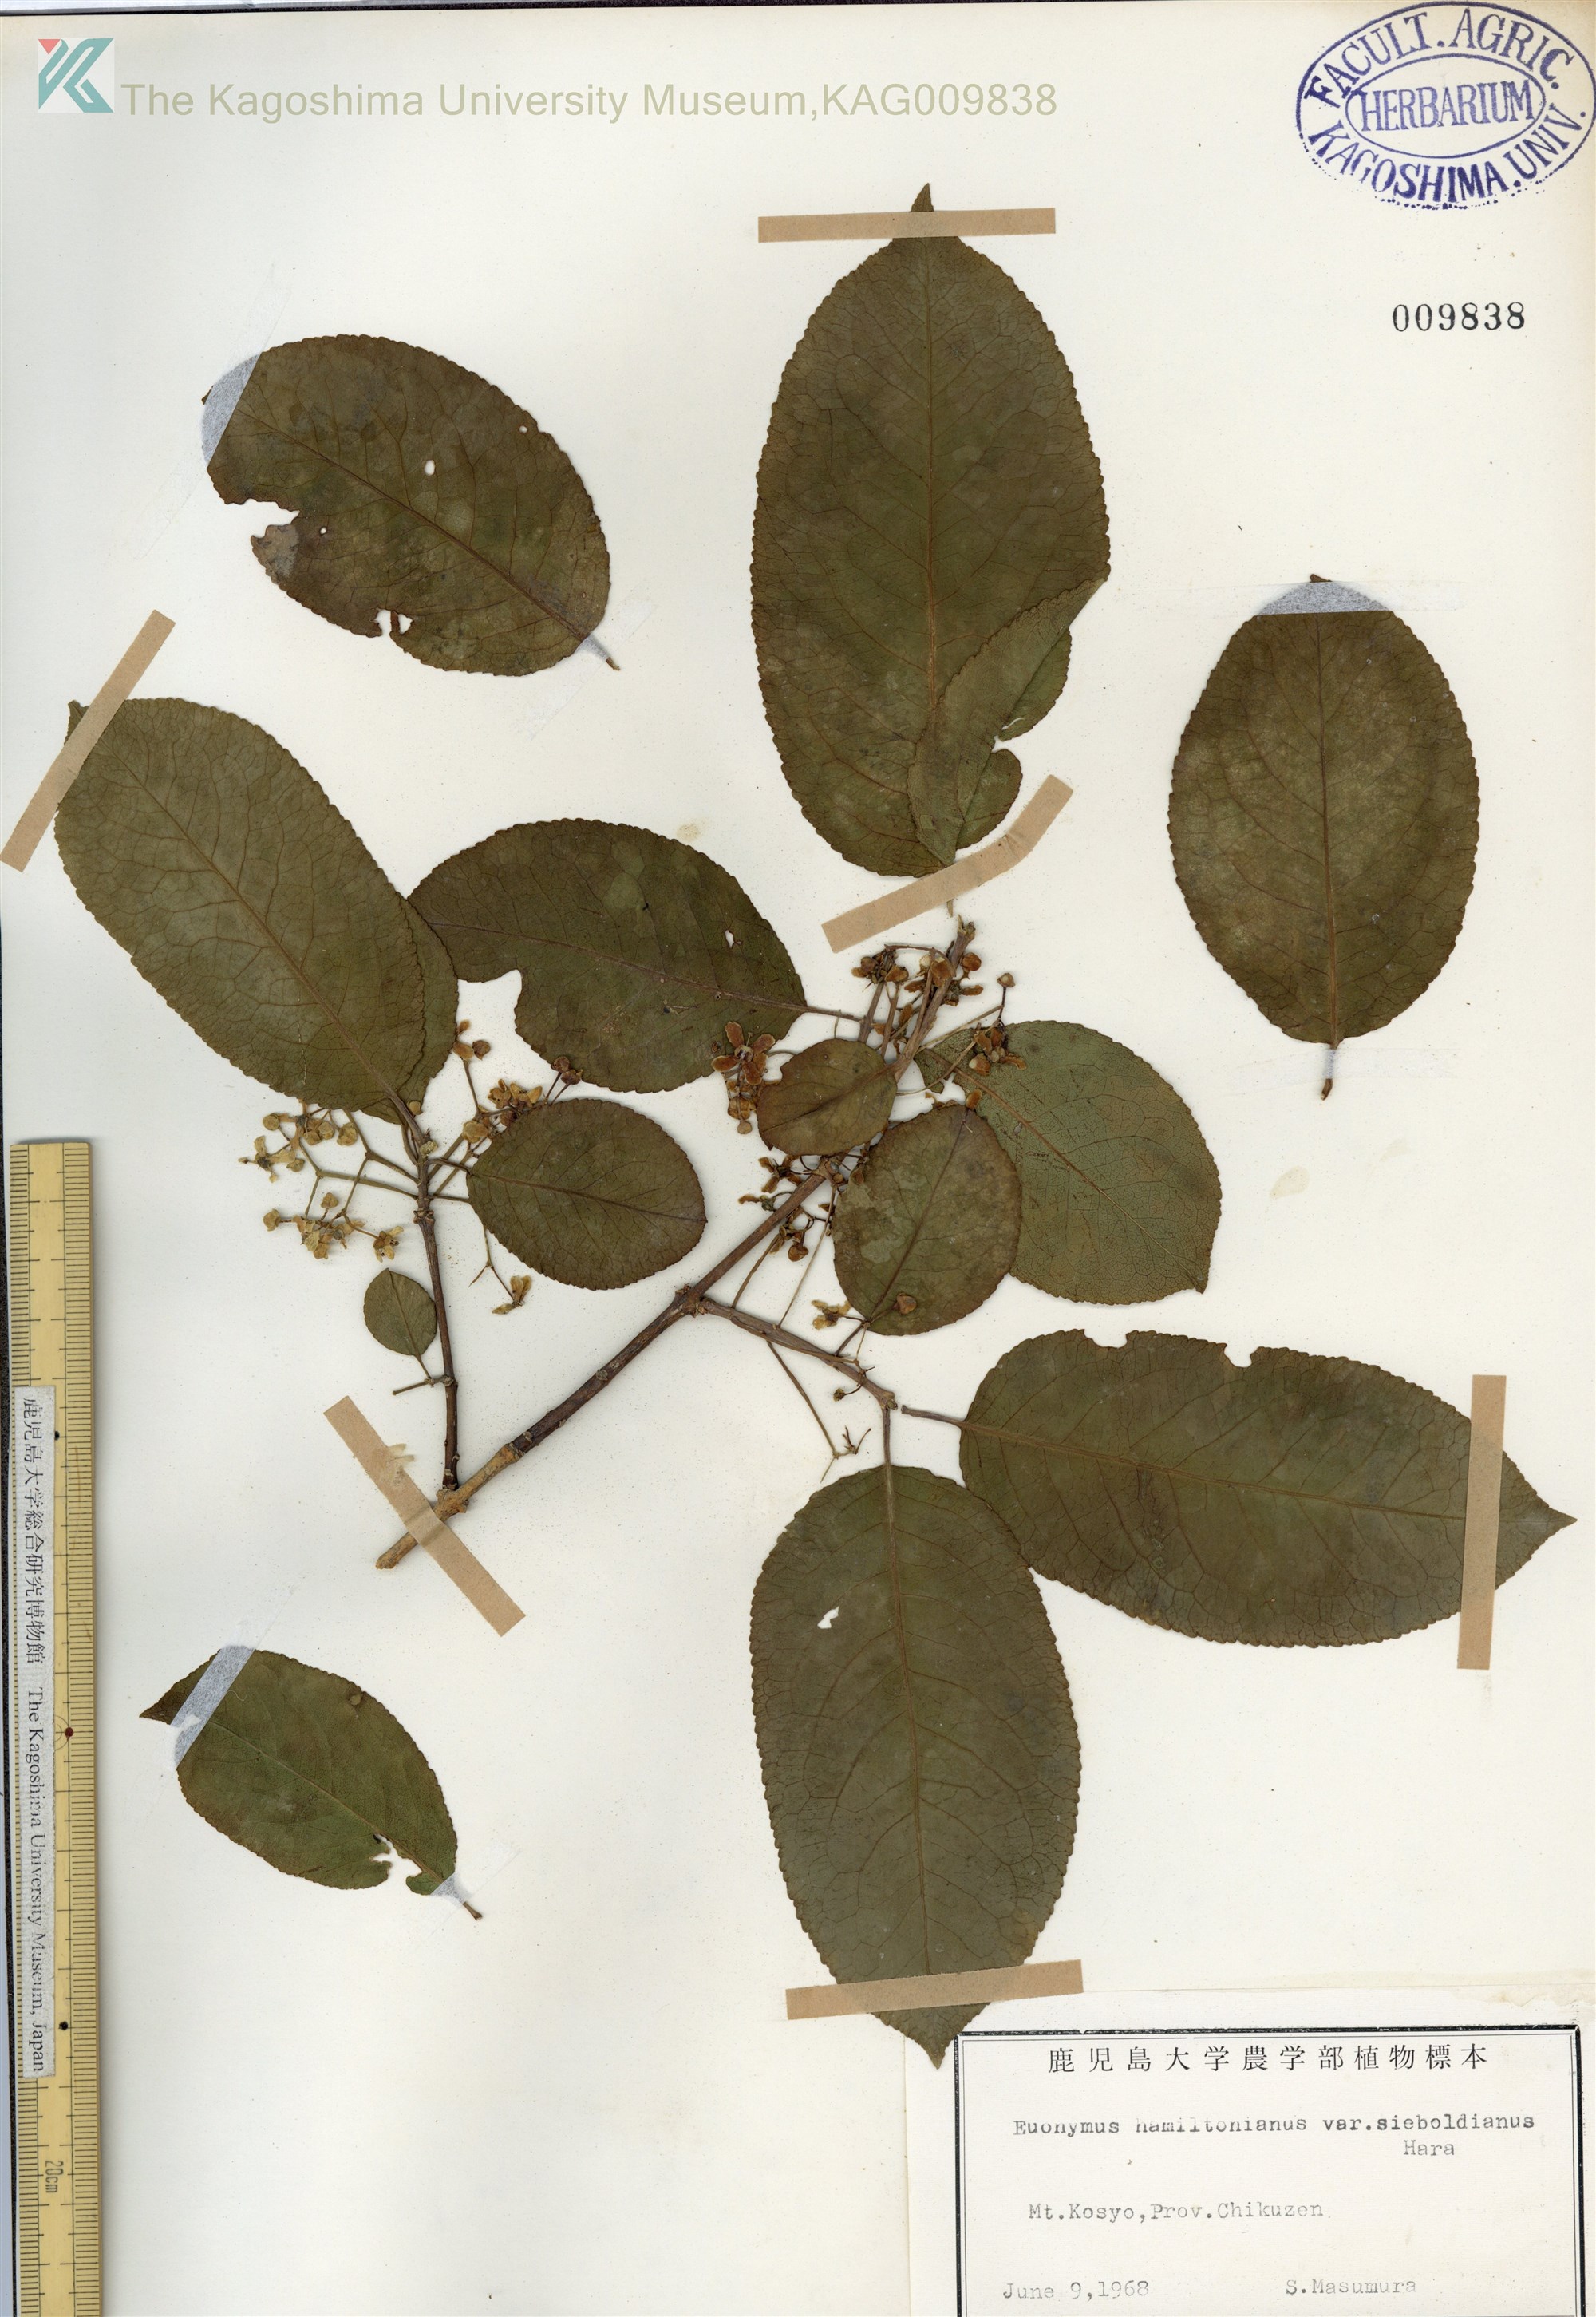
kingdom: Plantae
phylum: Tracheophyta
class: Magnoliopsida
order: Celastrales
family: Celastraceae
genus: Euonymus
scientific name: Euonymus hamiltonianus
